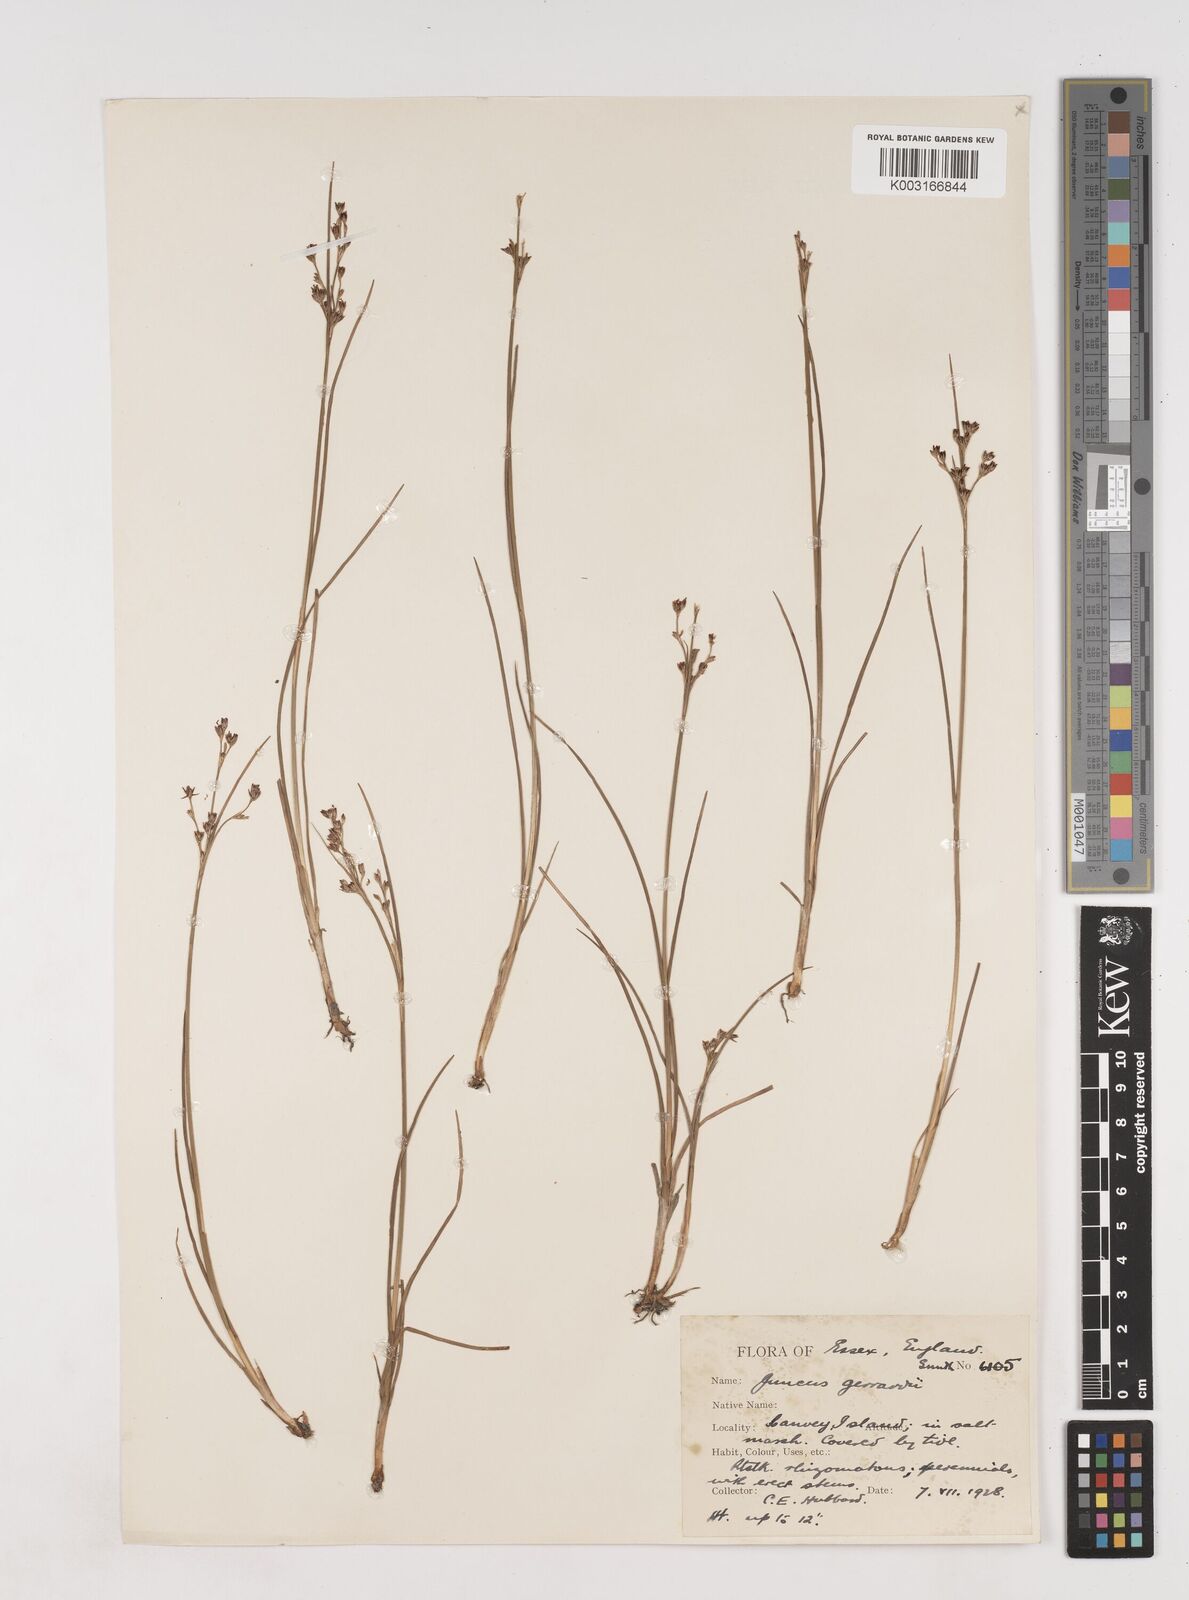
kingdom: Plantae
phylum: Tracheophyta
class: Liliopsida
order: Poales
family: Juncaceae
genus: Juncus
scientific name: Juncus gerardi
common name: Saltmarsh rush
